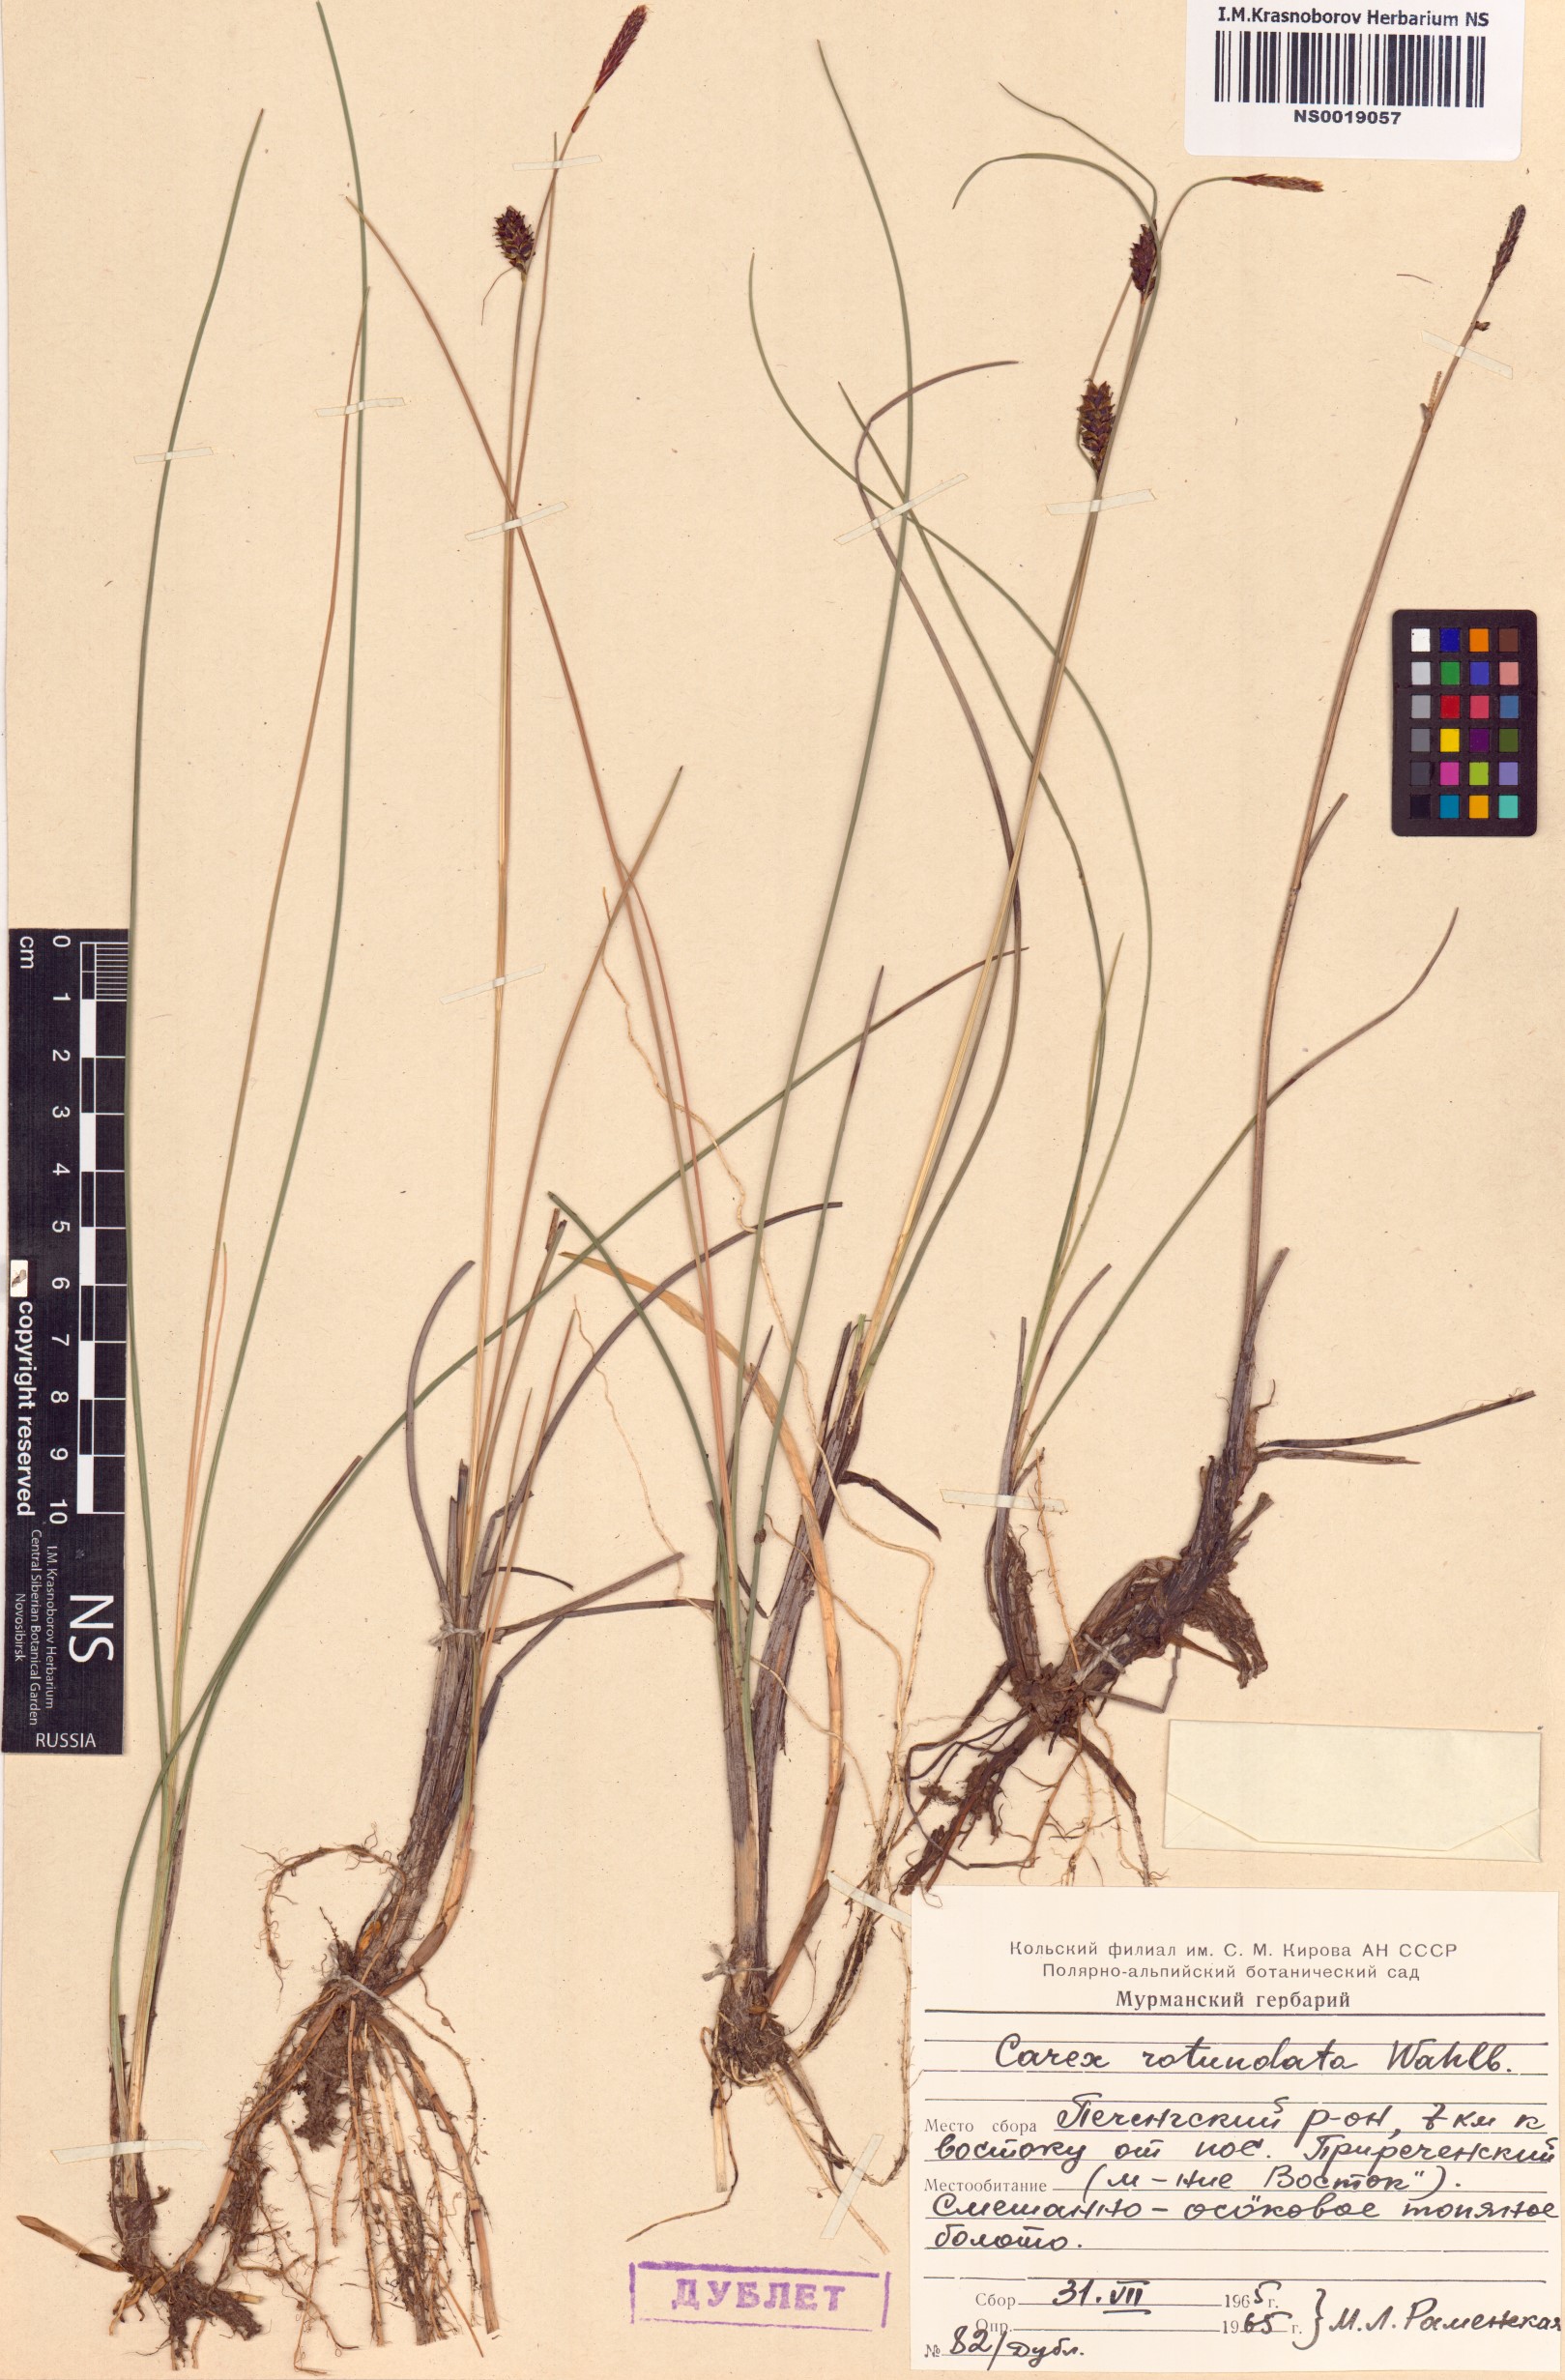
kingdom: Plantae
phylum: Tracheophyta
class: Liliopsida
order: Poales
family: Cyperaceae
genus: Carex
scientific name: Carex rotundata
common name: Round-fruited sedge
